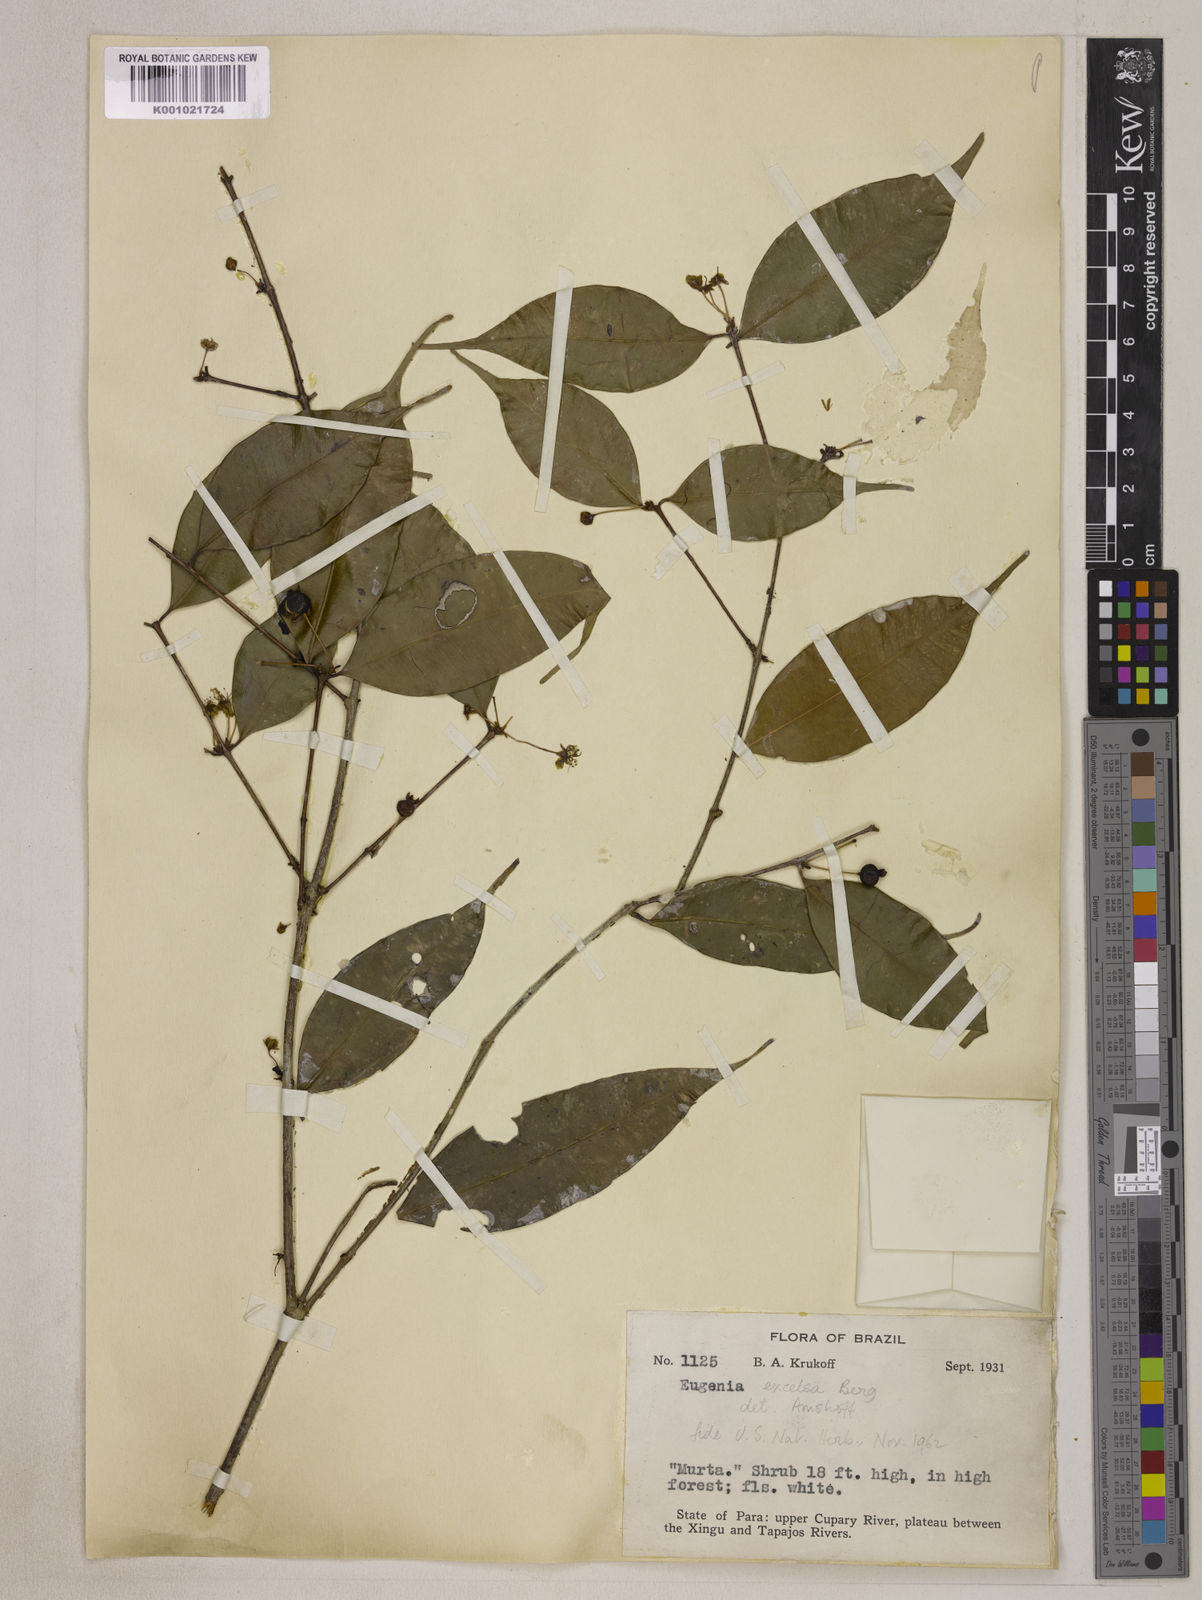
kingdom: Plantae
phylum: Tracheophyta
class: Magnoliopsida
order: Myrtales
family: Myrtaceae
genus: Eugenia
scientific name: Eugenia excelsa
